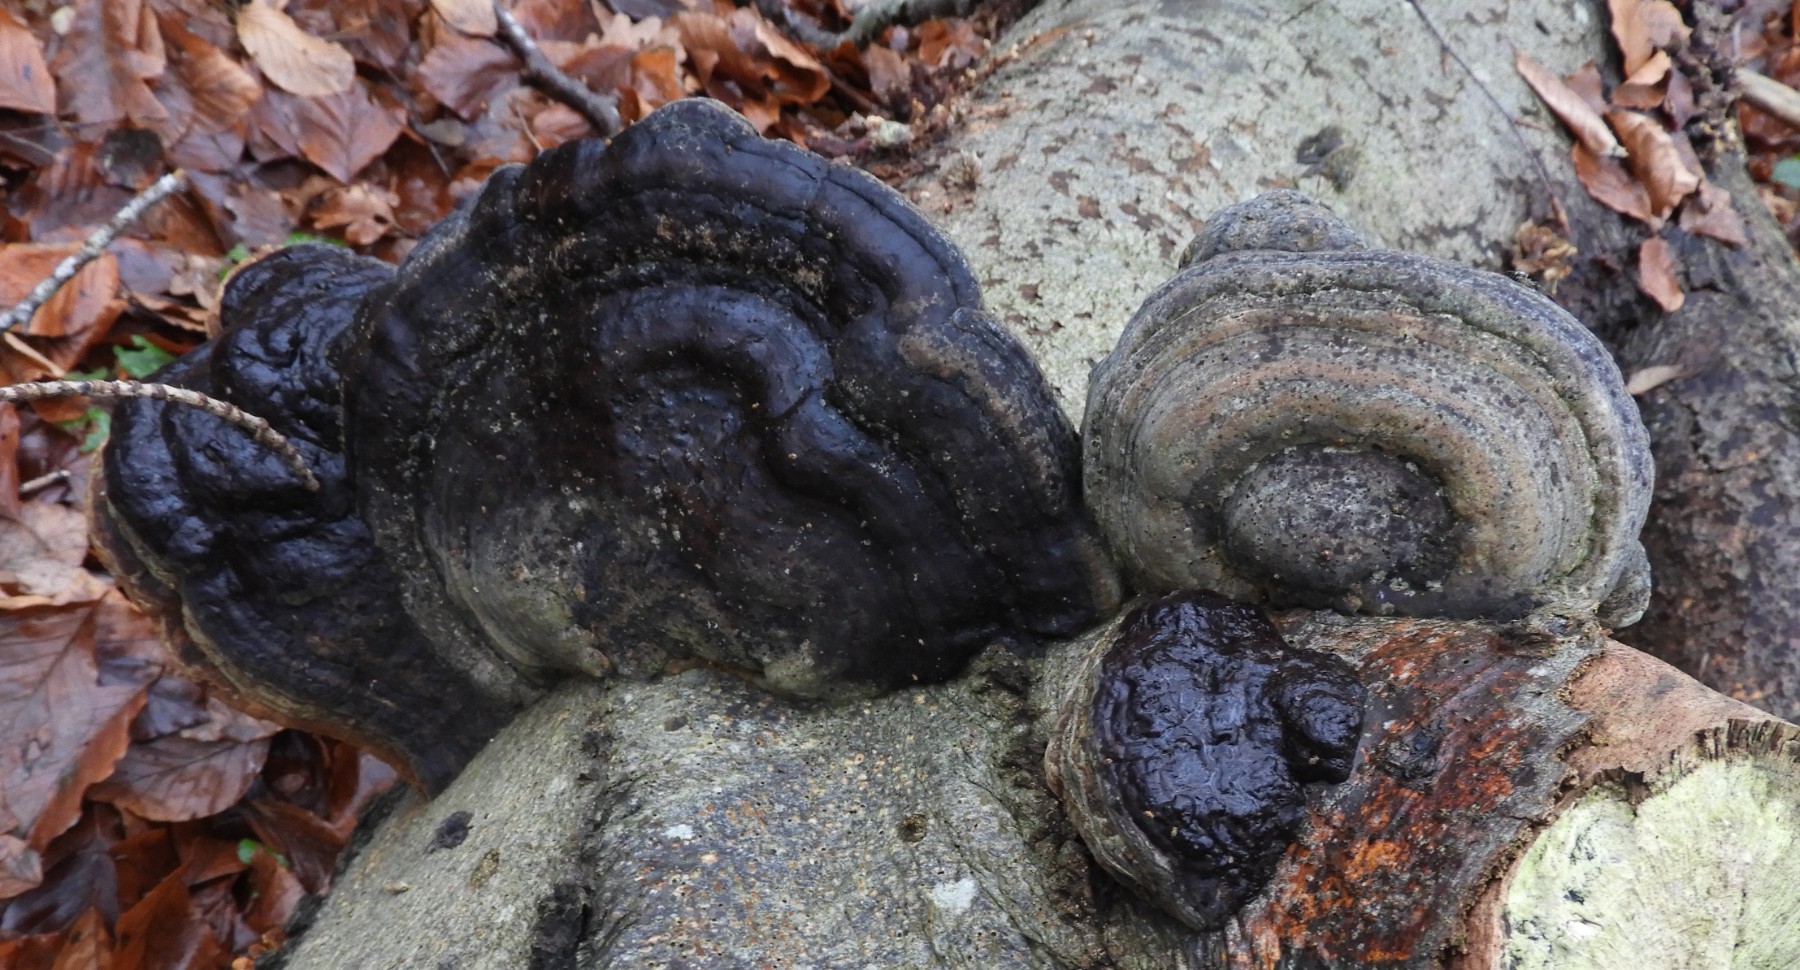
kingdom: Fungi
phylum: Basidiomycota
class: Agaricomycetes
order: Polyporales
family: Polyporaceae
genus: Fomes
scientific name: Fomes fomentarius
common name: tøndersvamp
